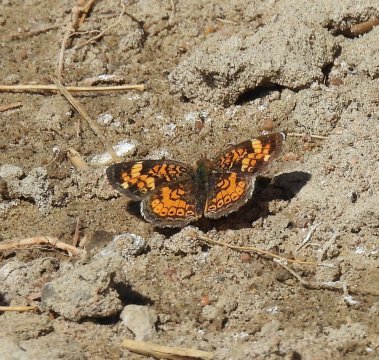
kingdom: Animalia
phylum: Arthropoda
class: Insecta
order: Lepidoptera
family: Nymphalidae
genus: Phyciodes
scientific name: Phyciodes tharos
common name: Pearl Crescent
